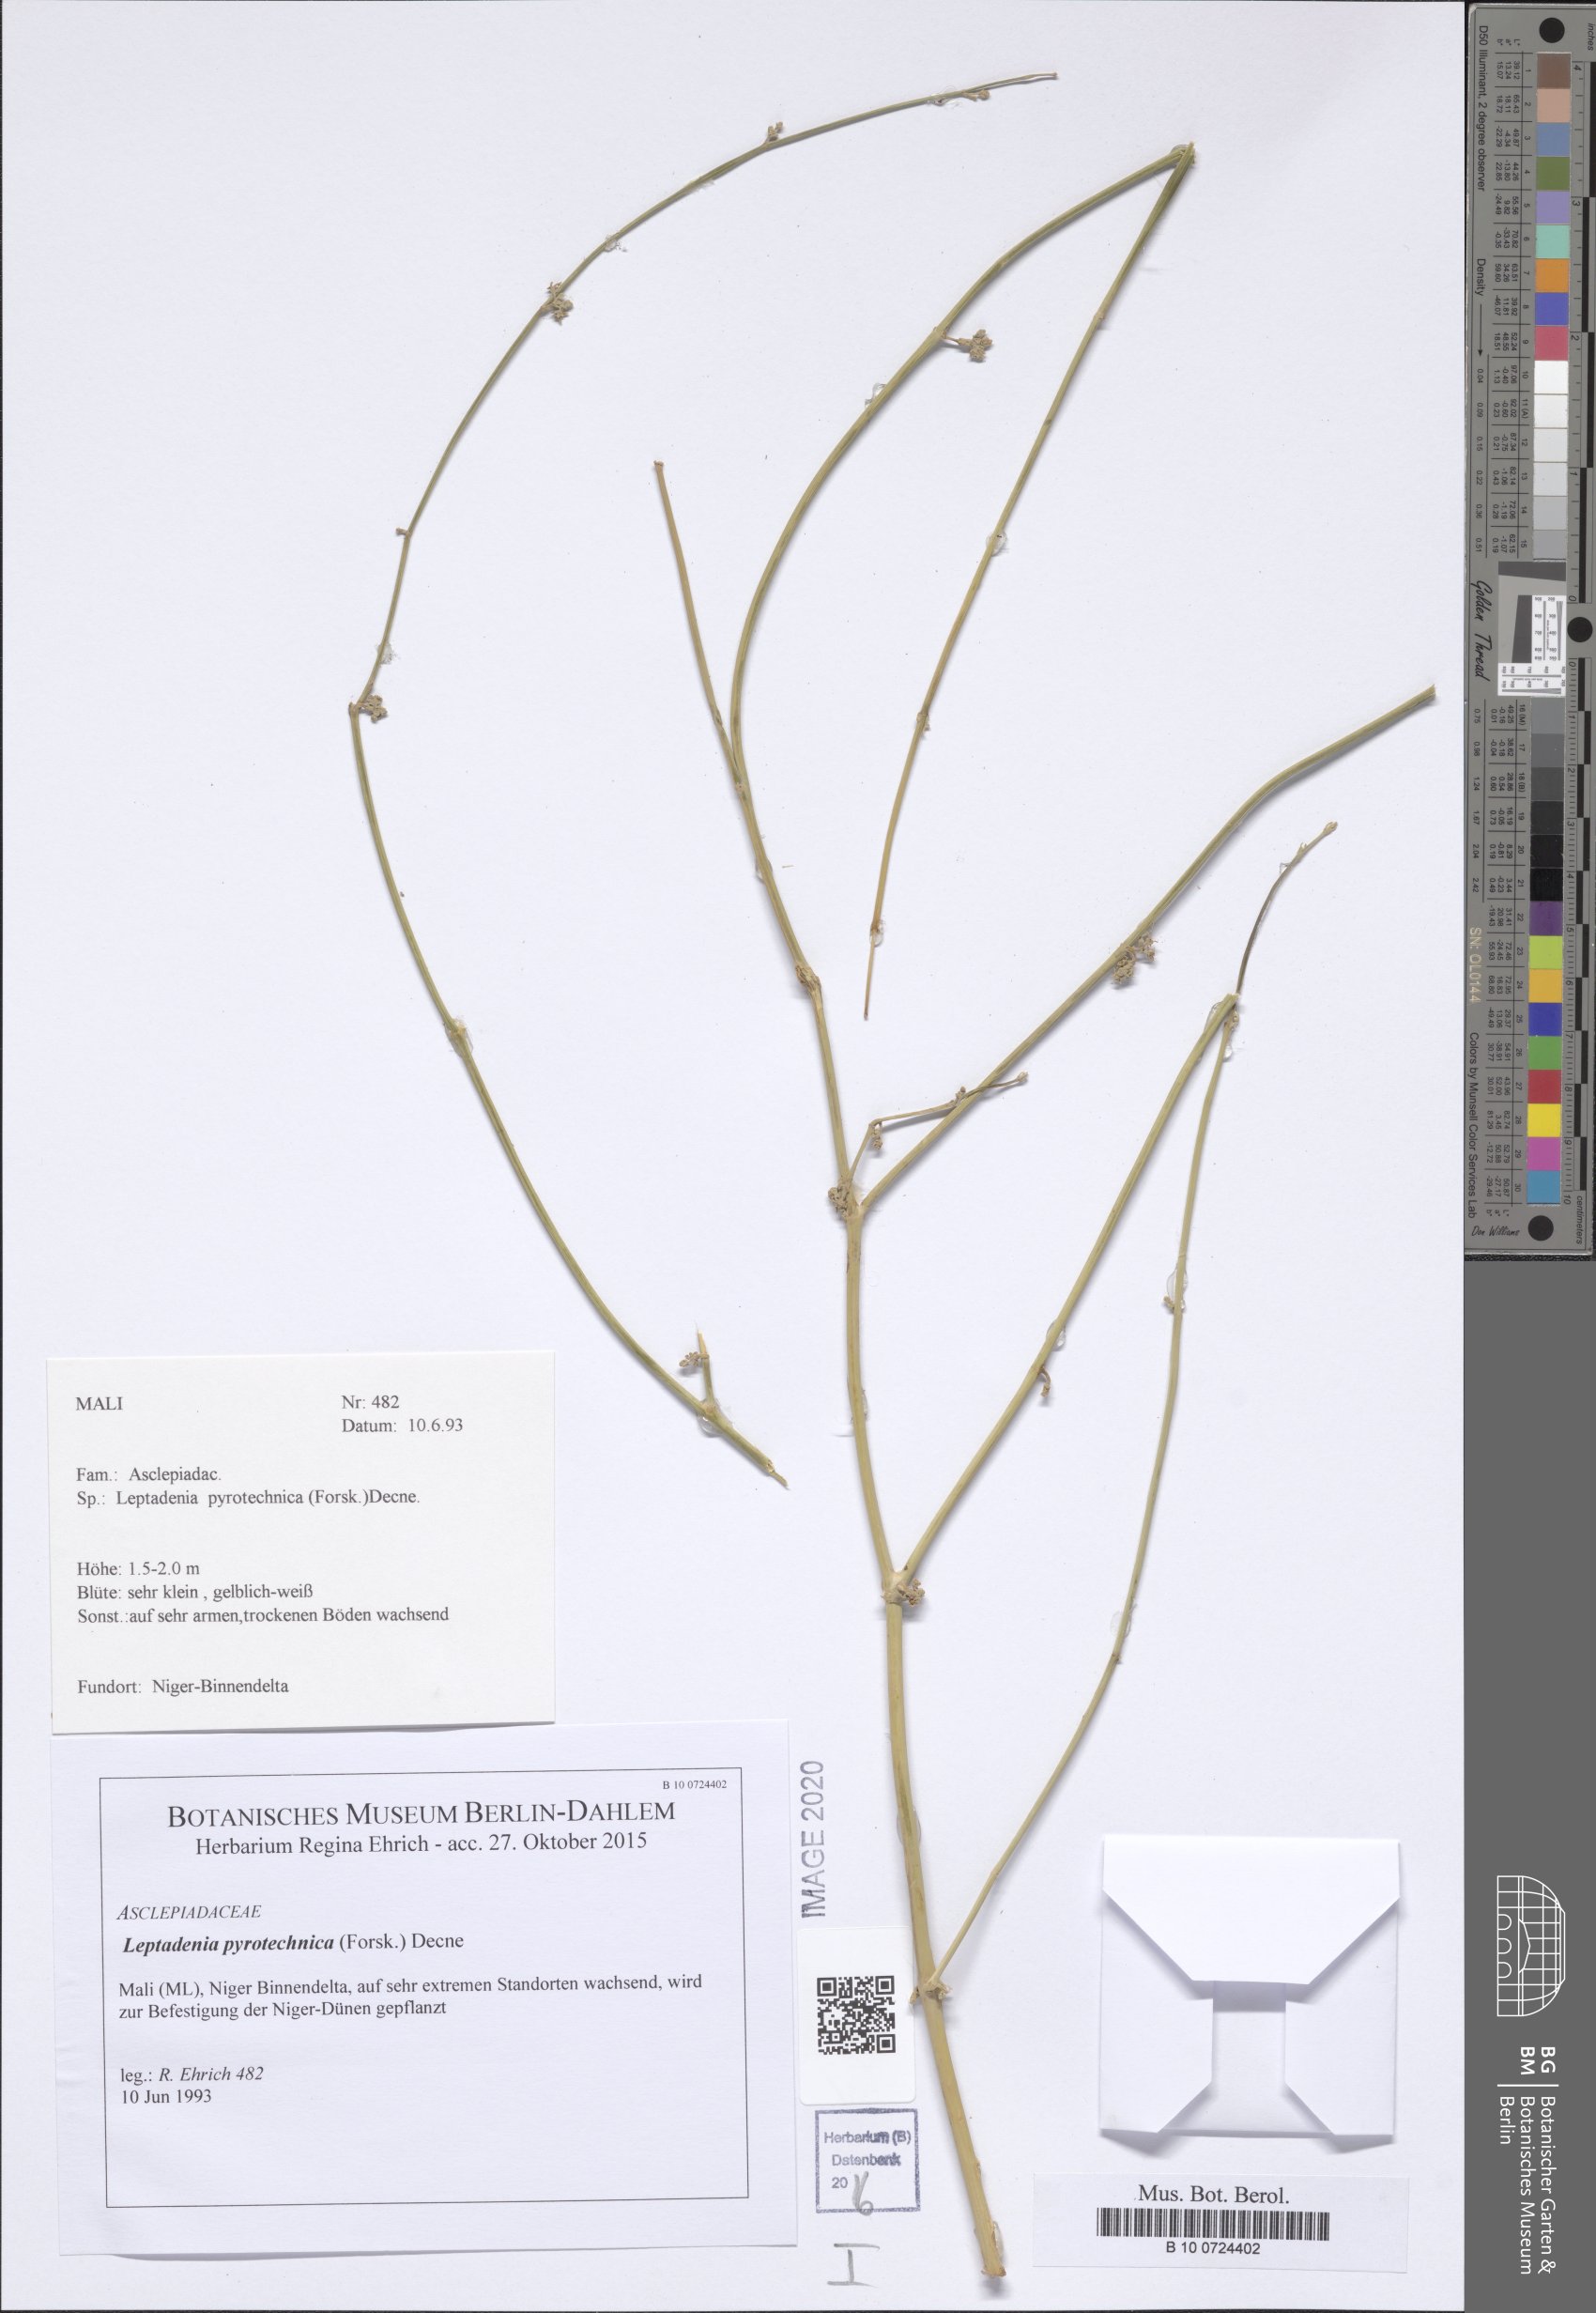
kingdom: Plantae
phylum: Tracheophyta
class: Magnoliopsida
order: Gentianales
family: Apocynaceae
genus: Leptadenia
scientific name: Leptadenia pyrotechnica
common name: Broom brush
